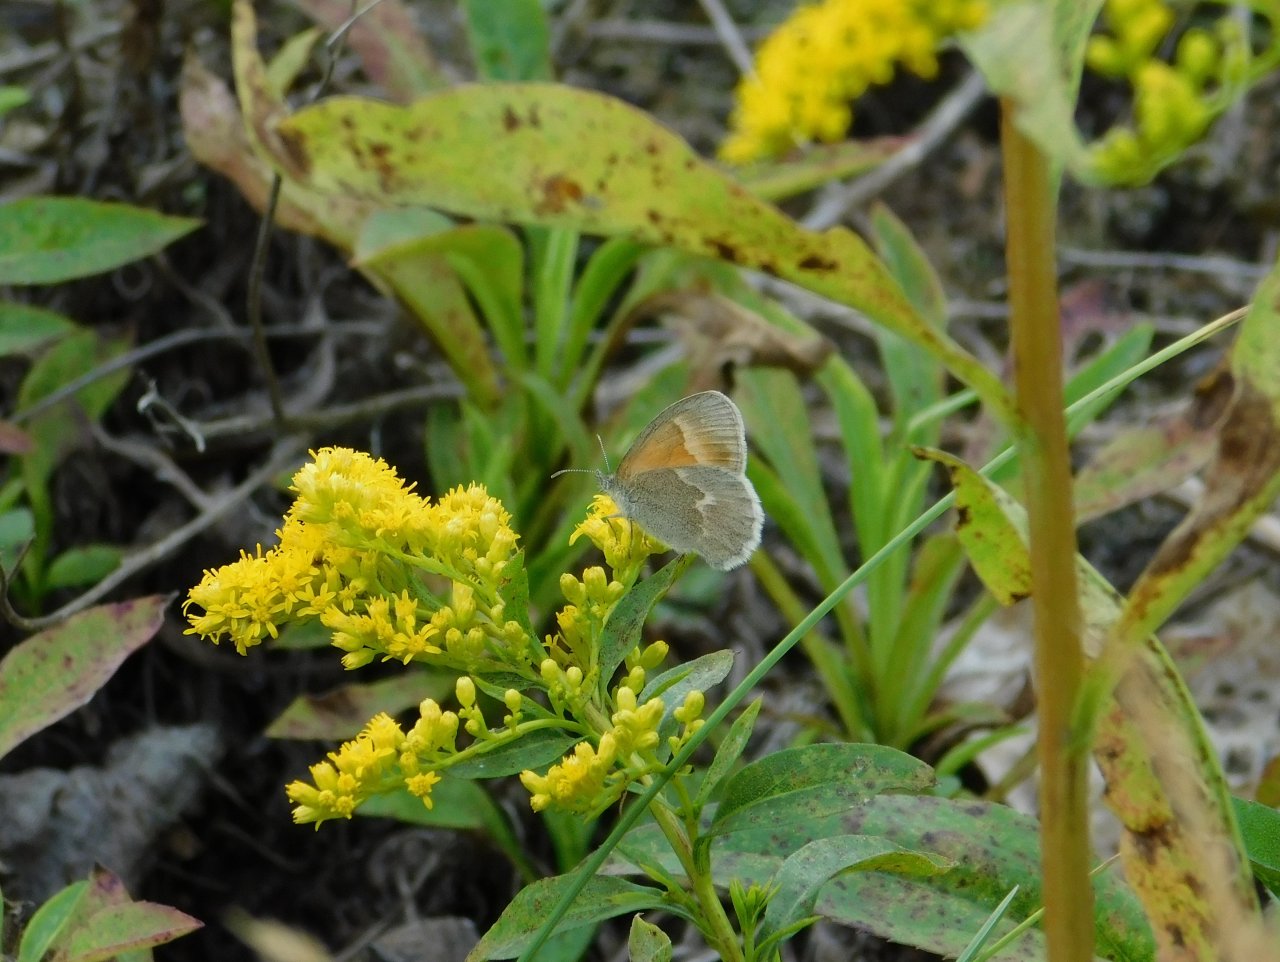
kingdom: Animalia
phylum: Arthropoda
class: Insecta
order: Lepidoptera
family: Nymphalidae
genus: Coenonympha
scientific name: Coenonympha tullia
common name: Large Heath
